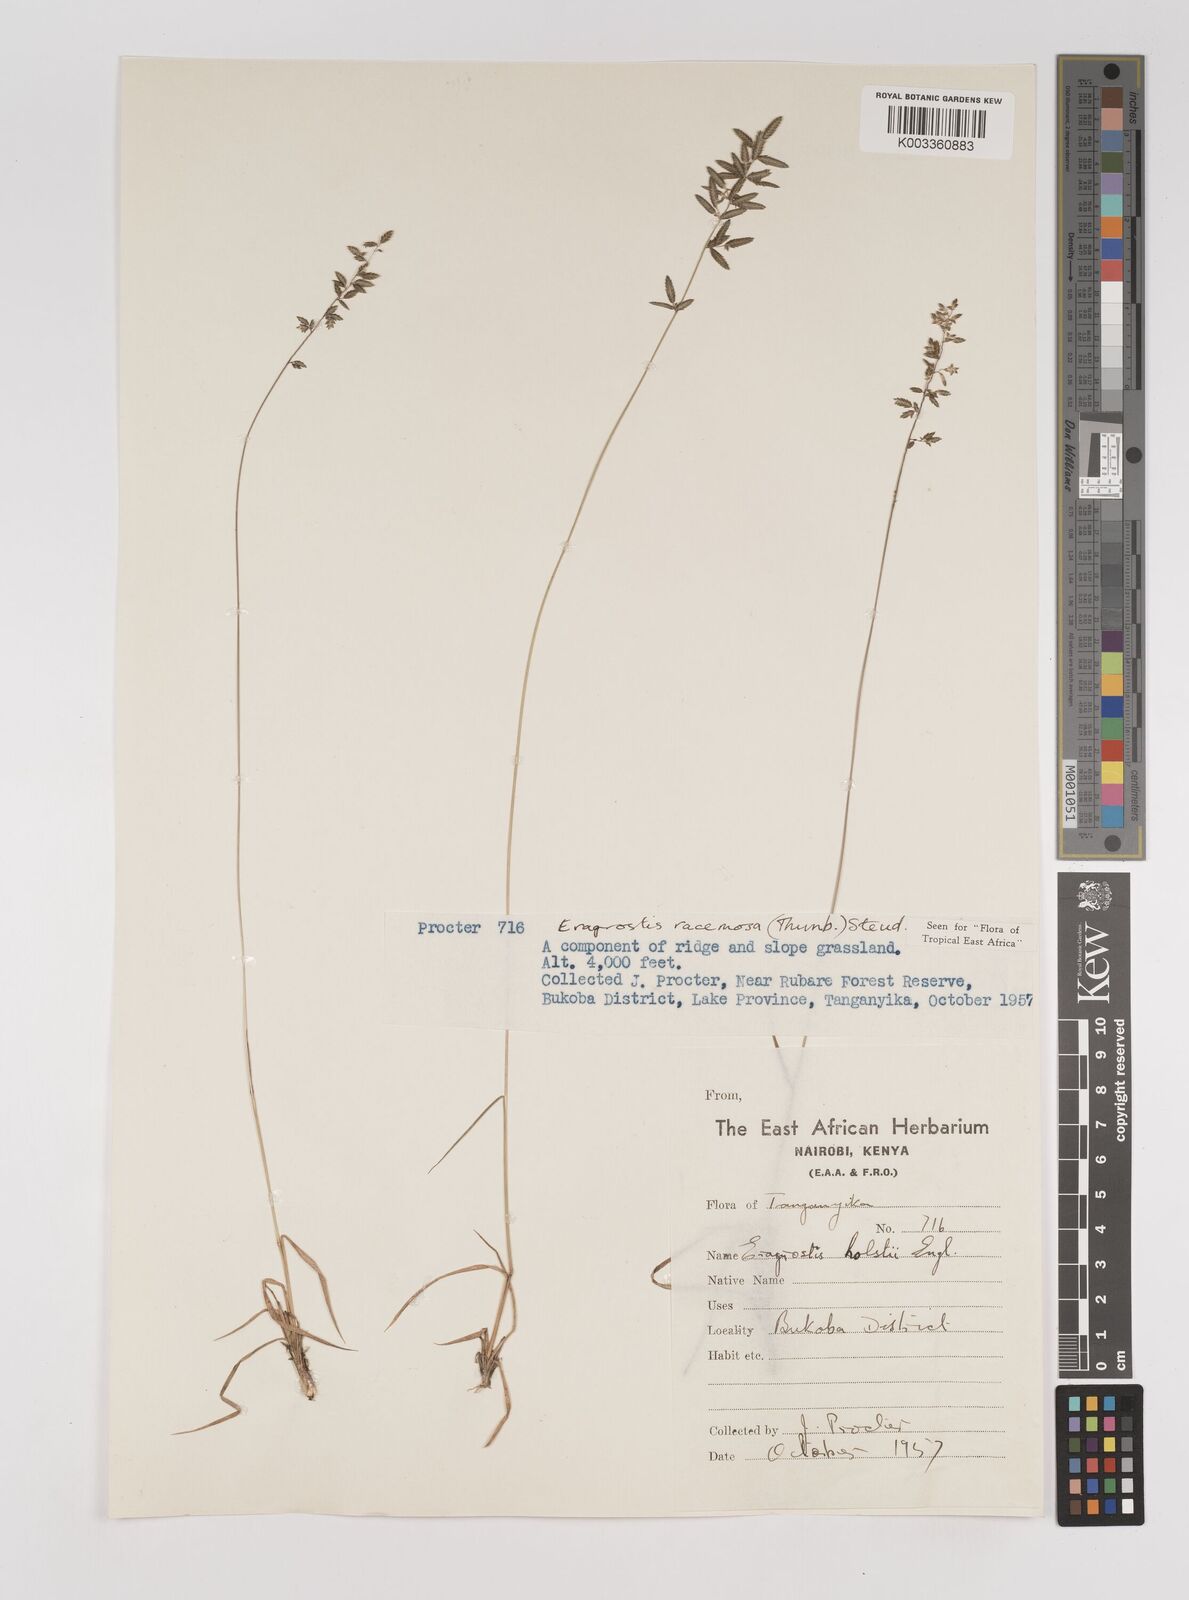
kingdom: Plantae
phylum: Tracheophyta
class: Liliopsida
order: Poales
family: Poaceae
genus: Eragrostis
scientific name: Eragrostis racemosa
